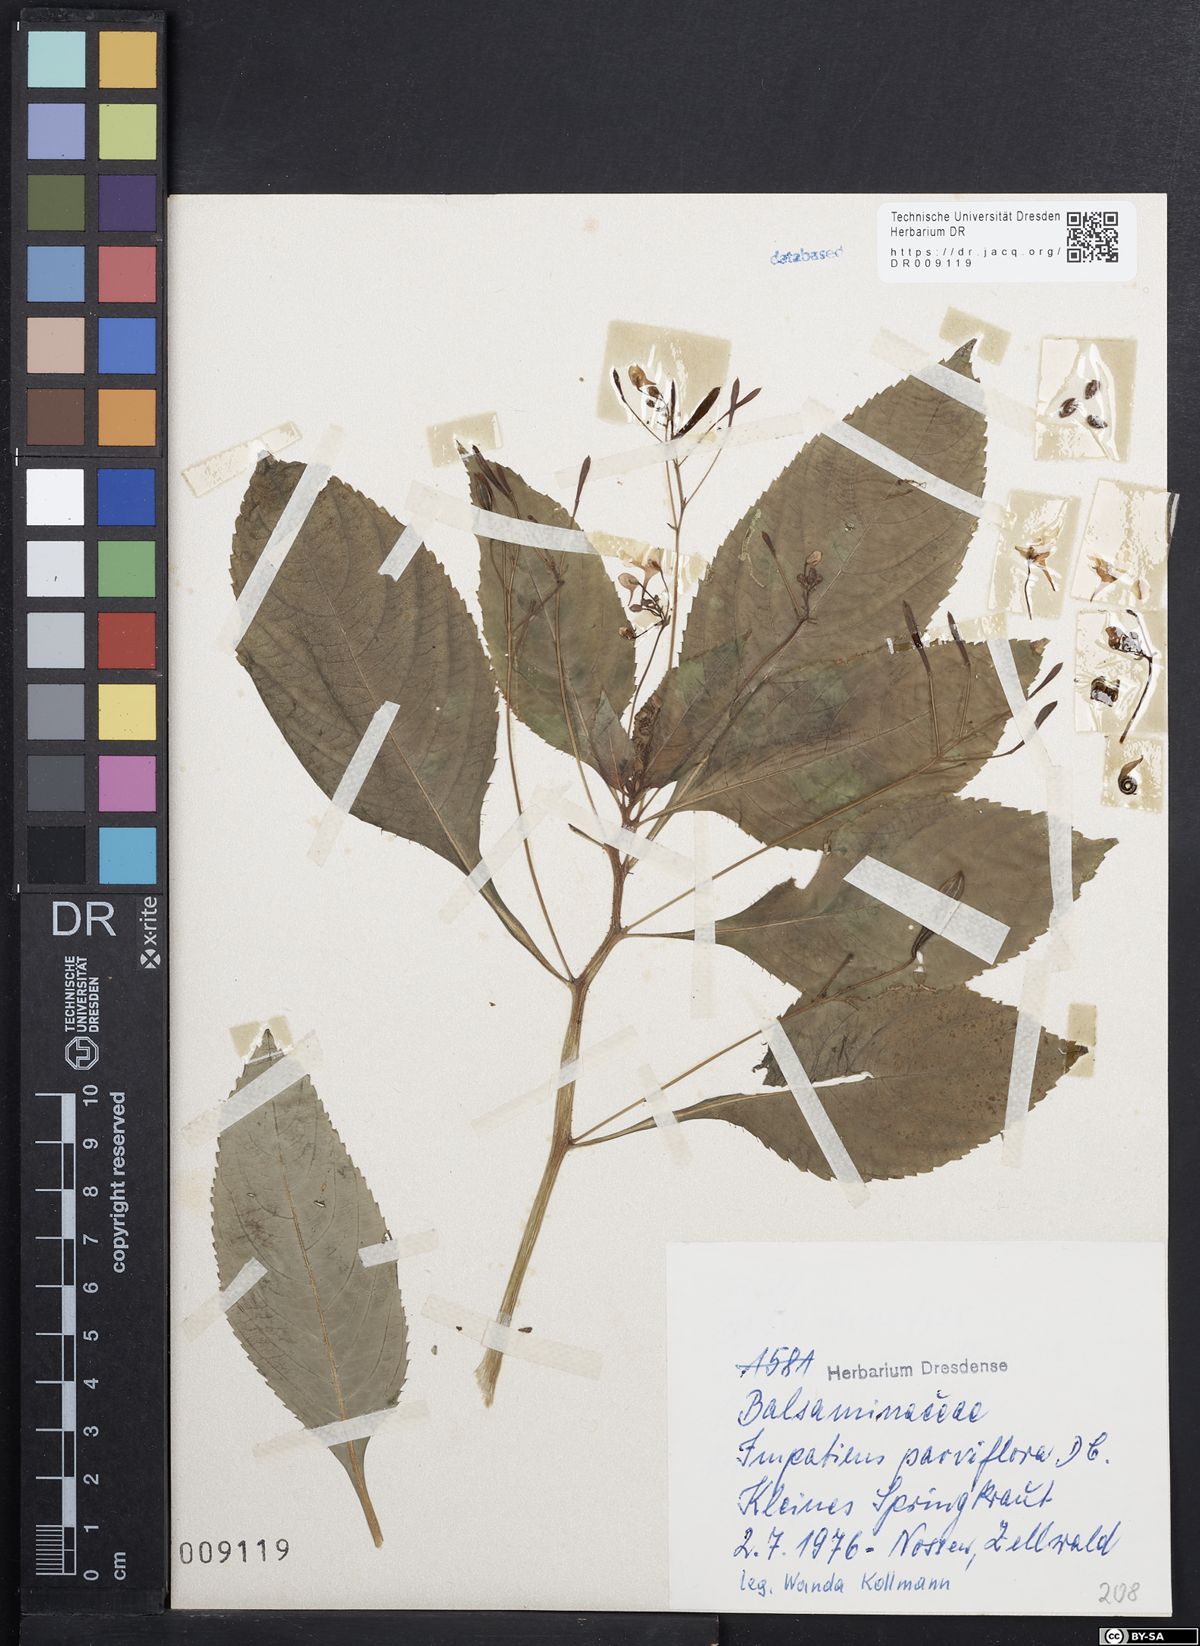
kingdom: Plantae
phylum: Tracheophyta
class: Magnoliopsida
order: Ericales
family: Balsaminaceae
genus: Impatiens
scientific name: Impatiens parviflora
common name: Small balsam
